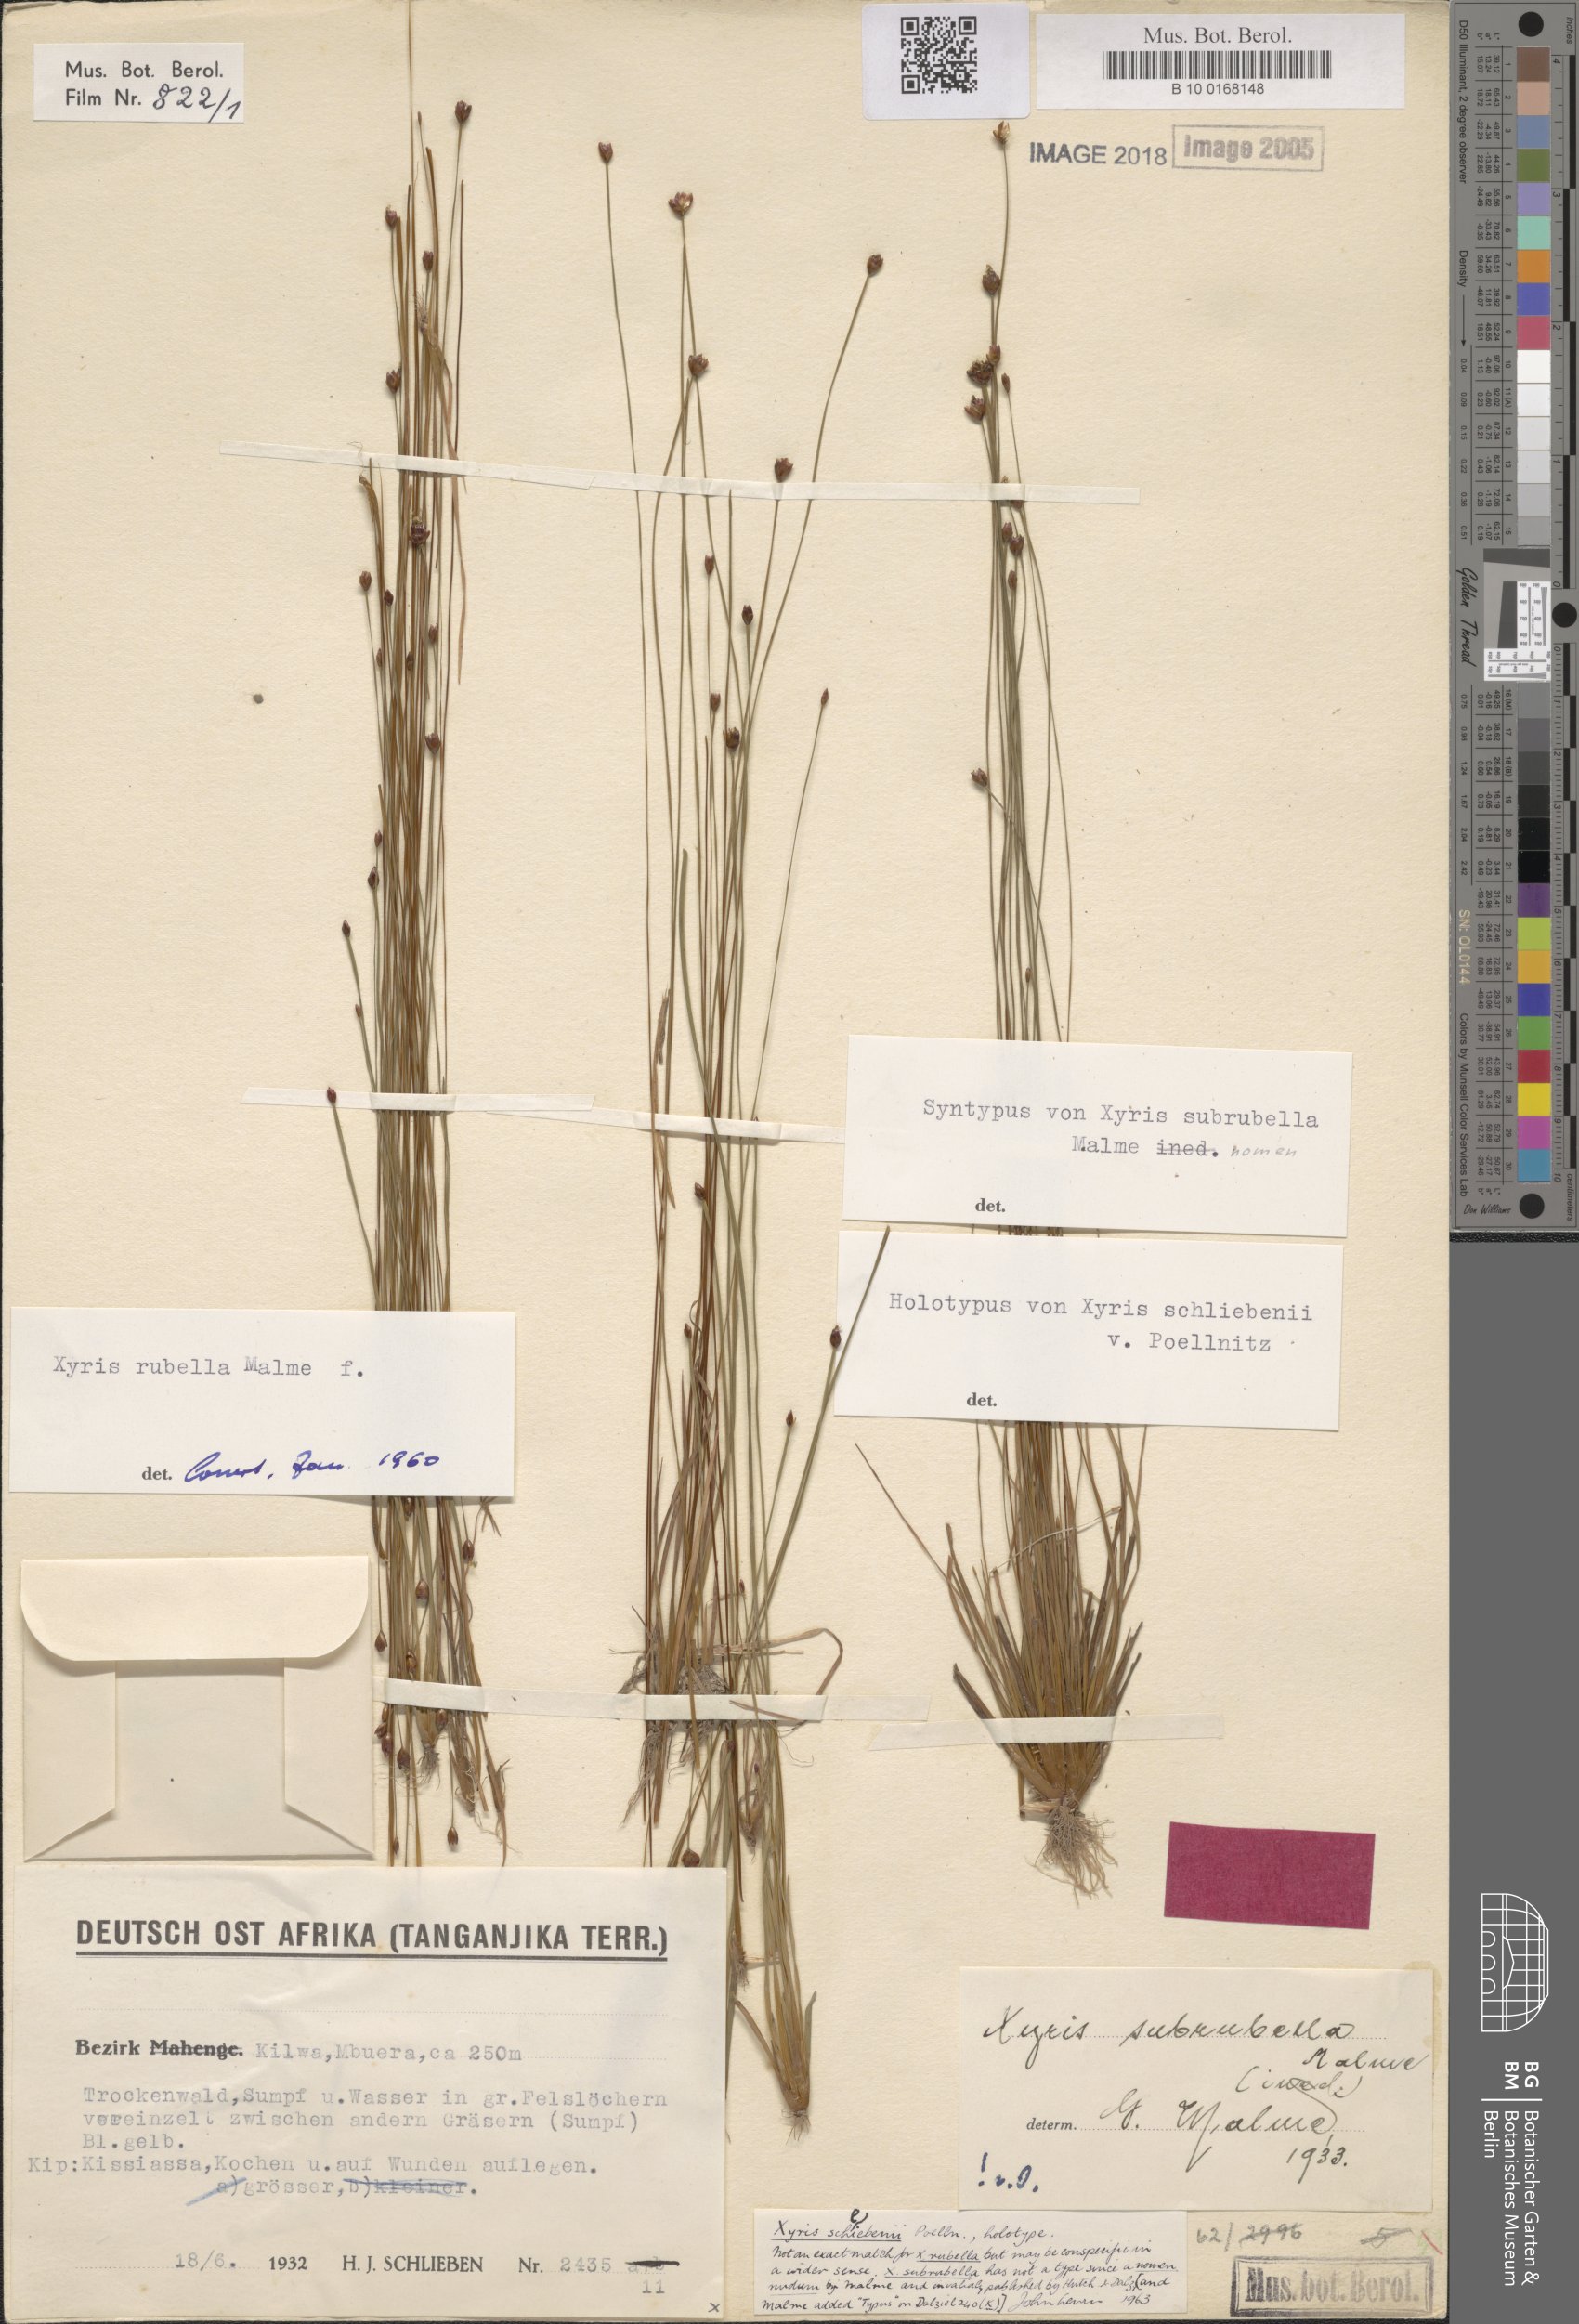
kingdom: Plantae
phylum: Tracheophyta
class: Liliopsida
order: Poales
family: Xyridaceae
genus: Xyris
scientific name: Xyris schliebenii
